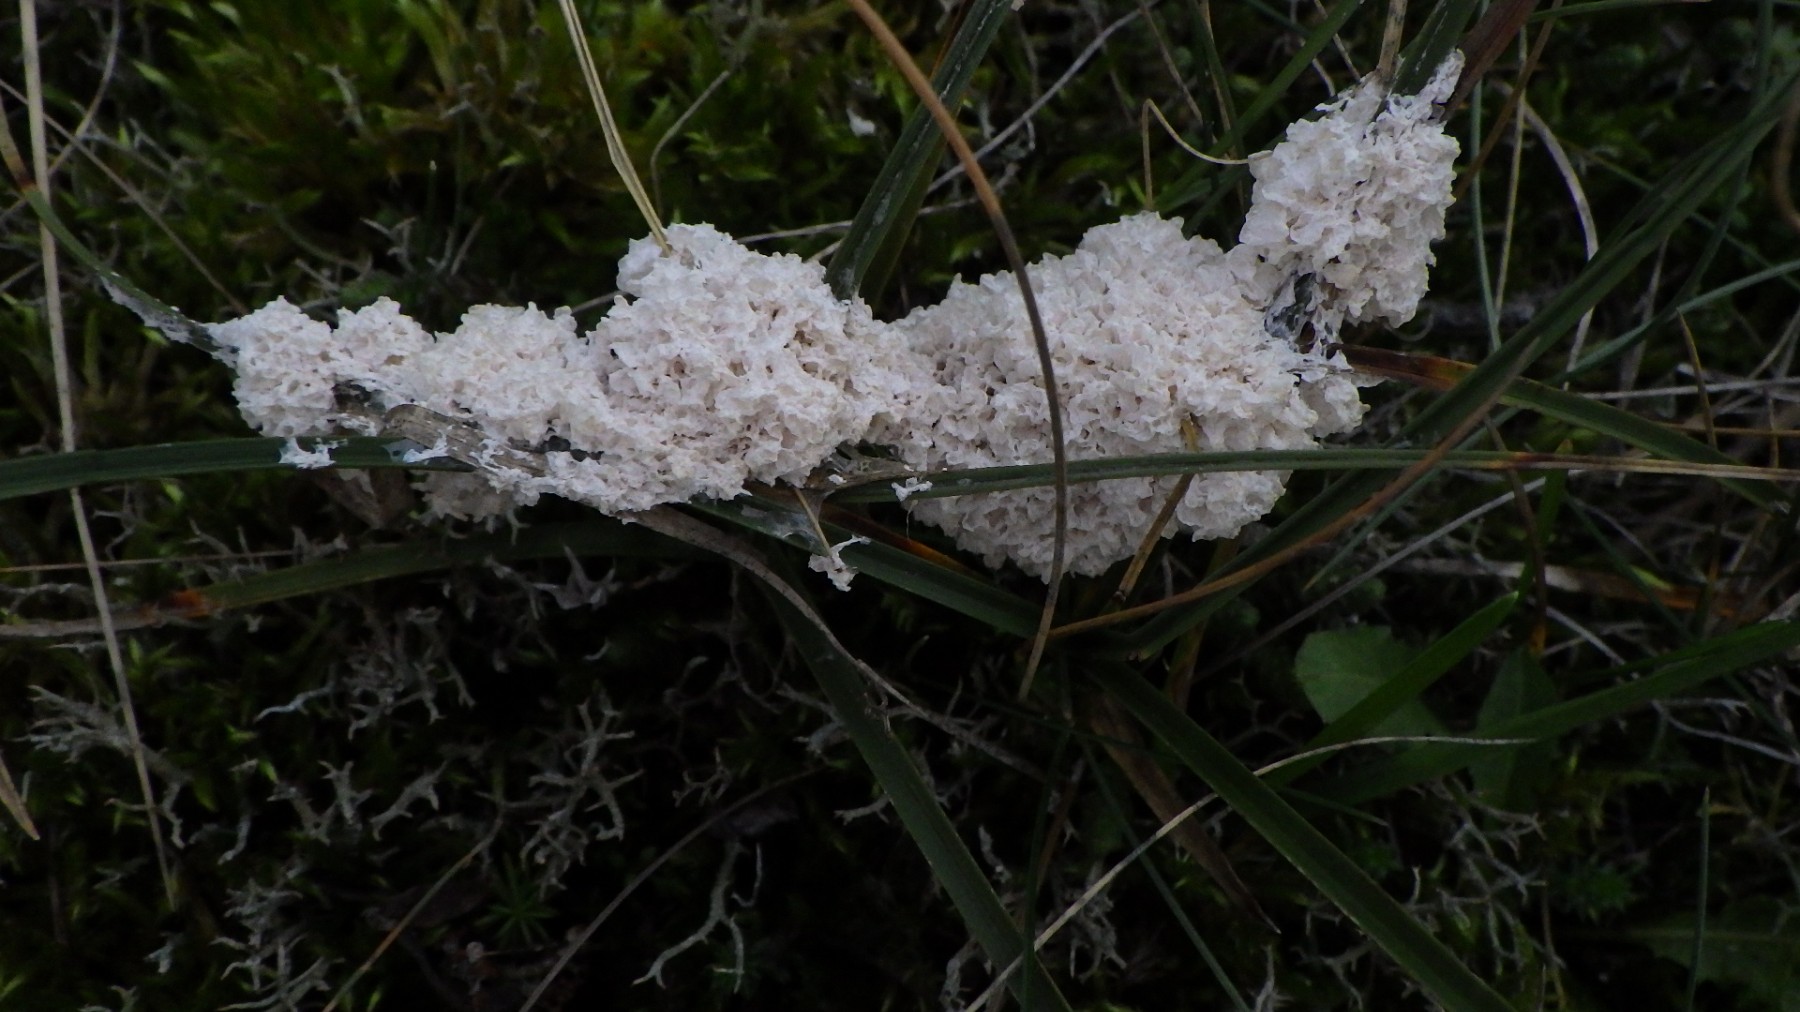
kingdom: Protozoa
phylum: Mycetozoa
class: Myxomycetes
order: Physarales
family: Physaraceae
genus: Didymium
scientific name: Didymium
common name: urteskum
